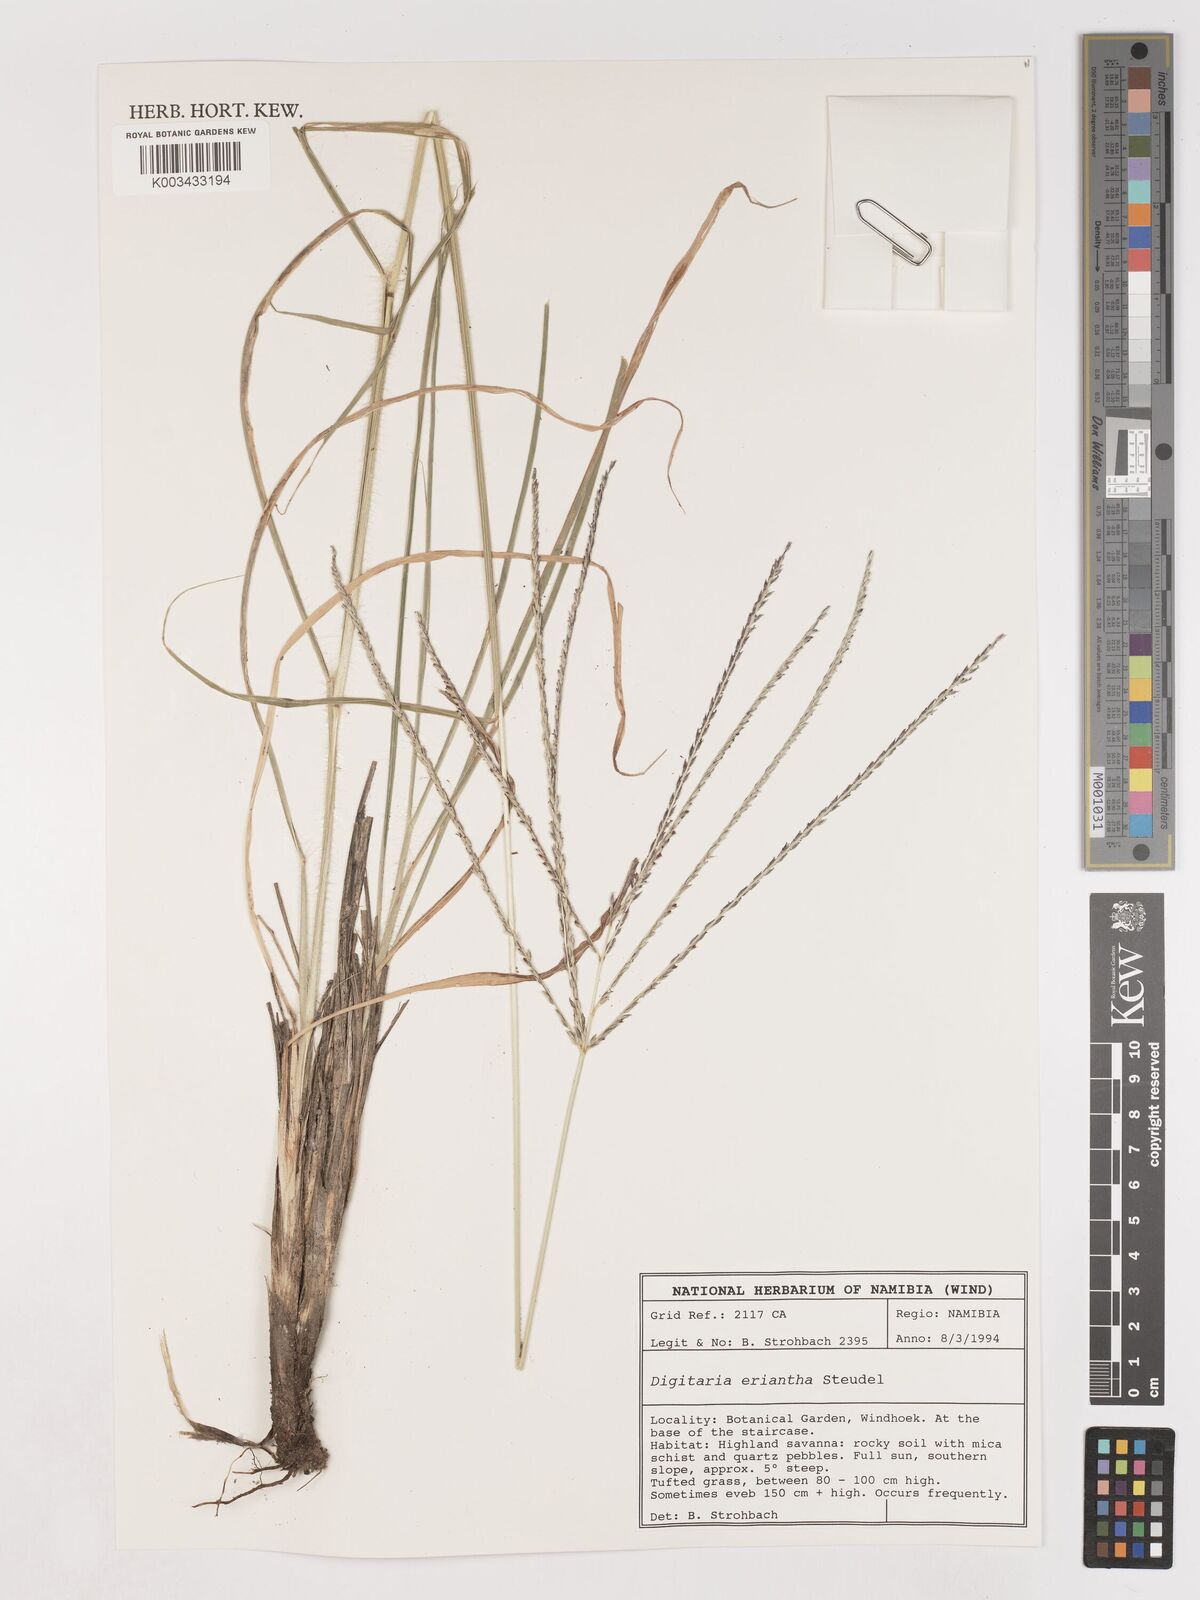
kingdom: Plantae
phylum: Tracheophyta
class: Liliopsida
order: Poales
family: Poaceae
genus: Digitaria
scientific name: Digitaria eriantha
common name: Digitgrass
